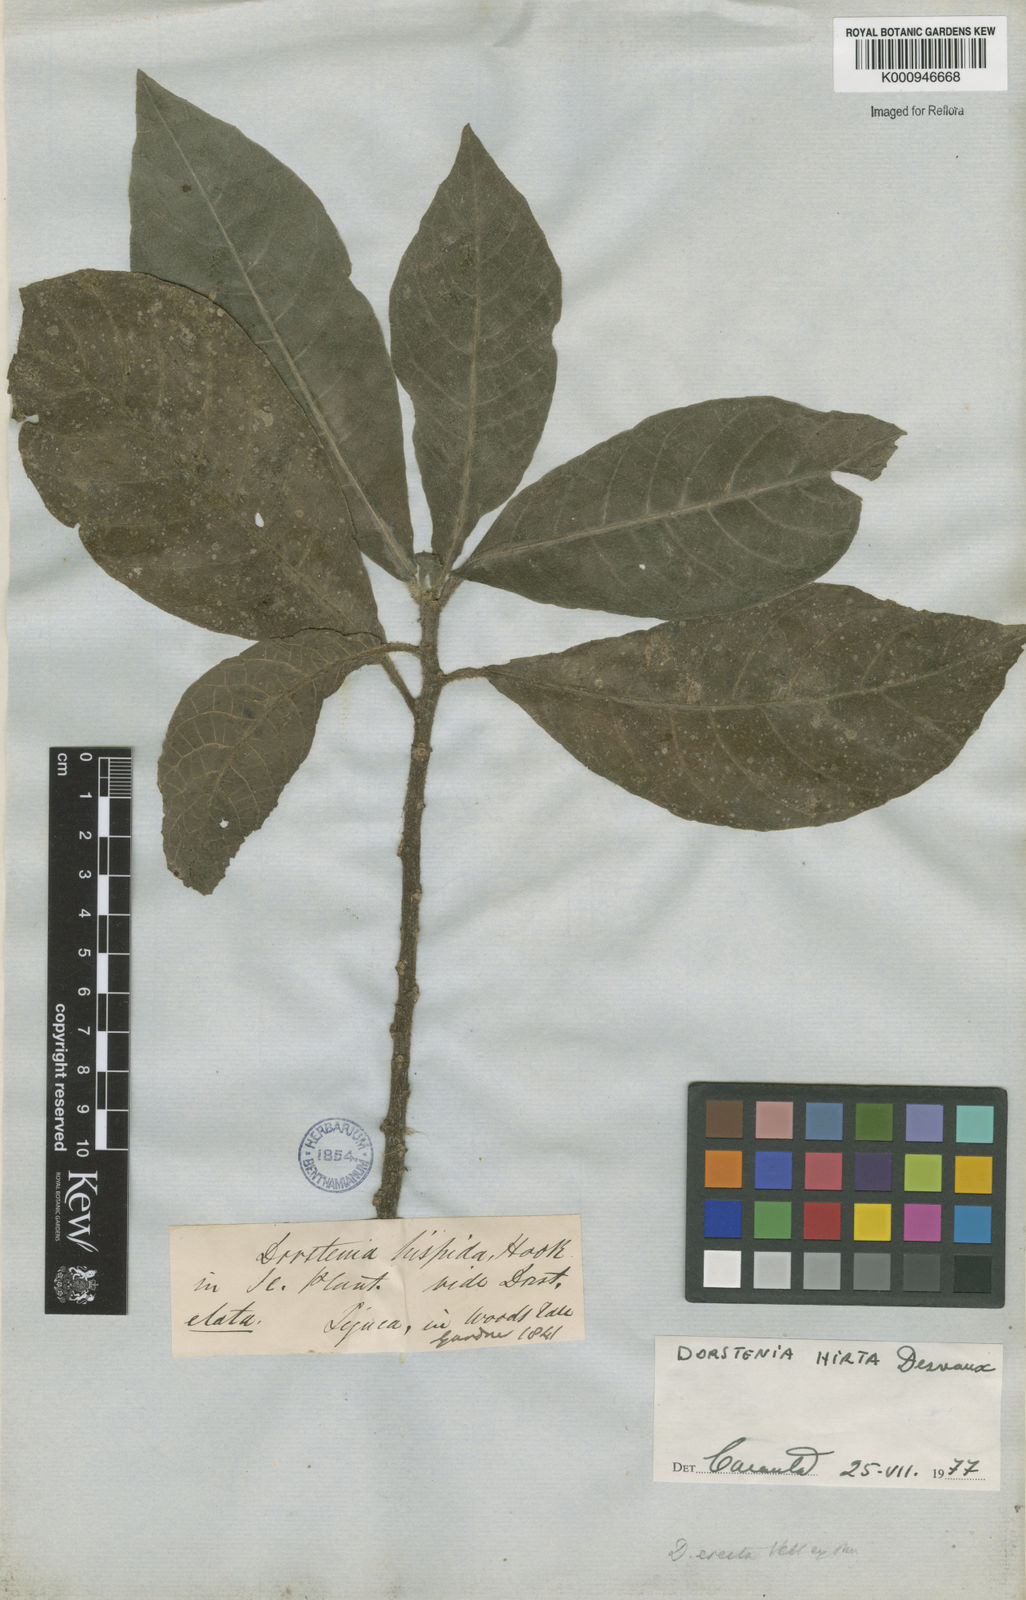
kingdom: Plantae
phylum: Tracheophyta
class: Magnoliopsida
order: Rosales
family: Moraceae
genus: Dorstenia
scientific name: Dorstenia hirta
